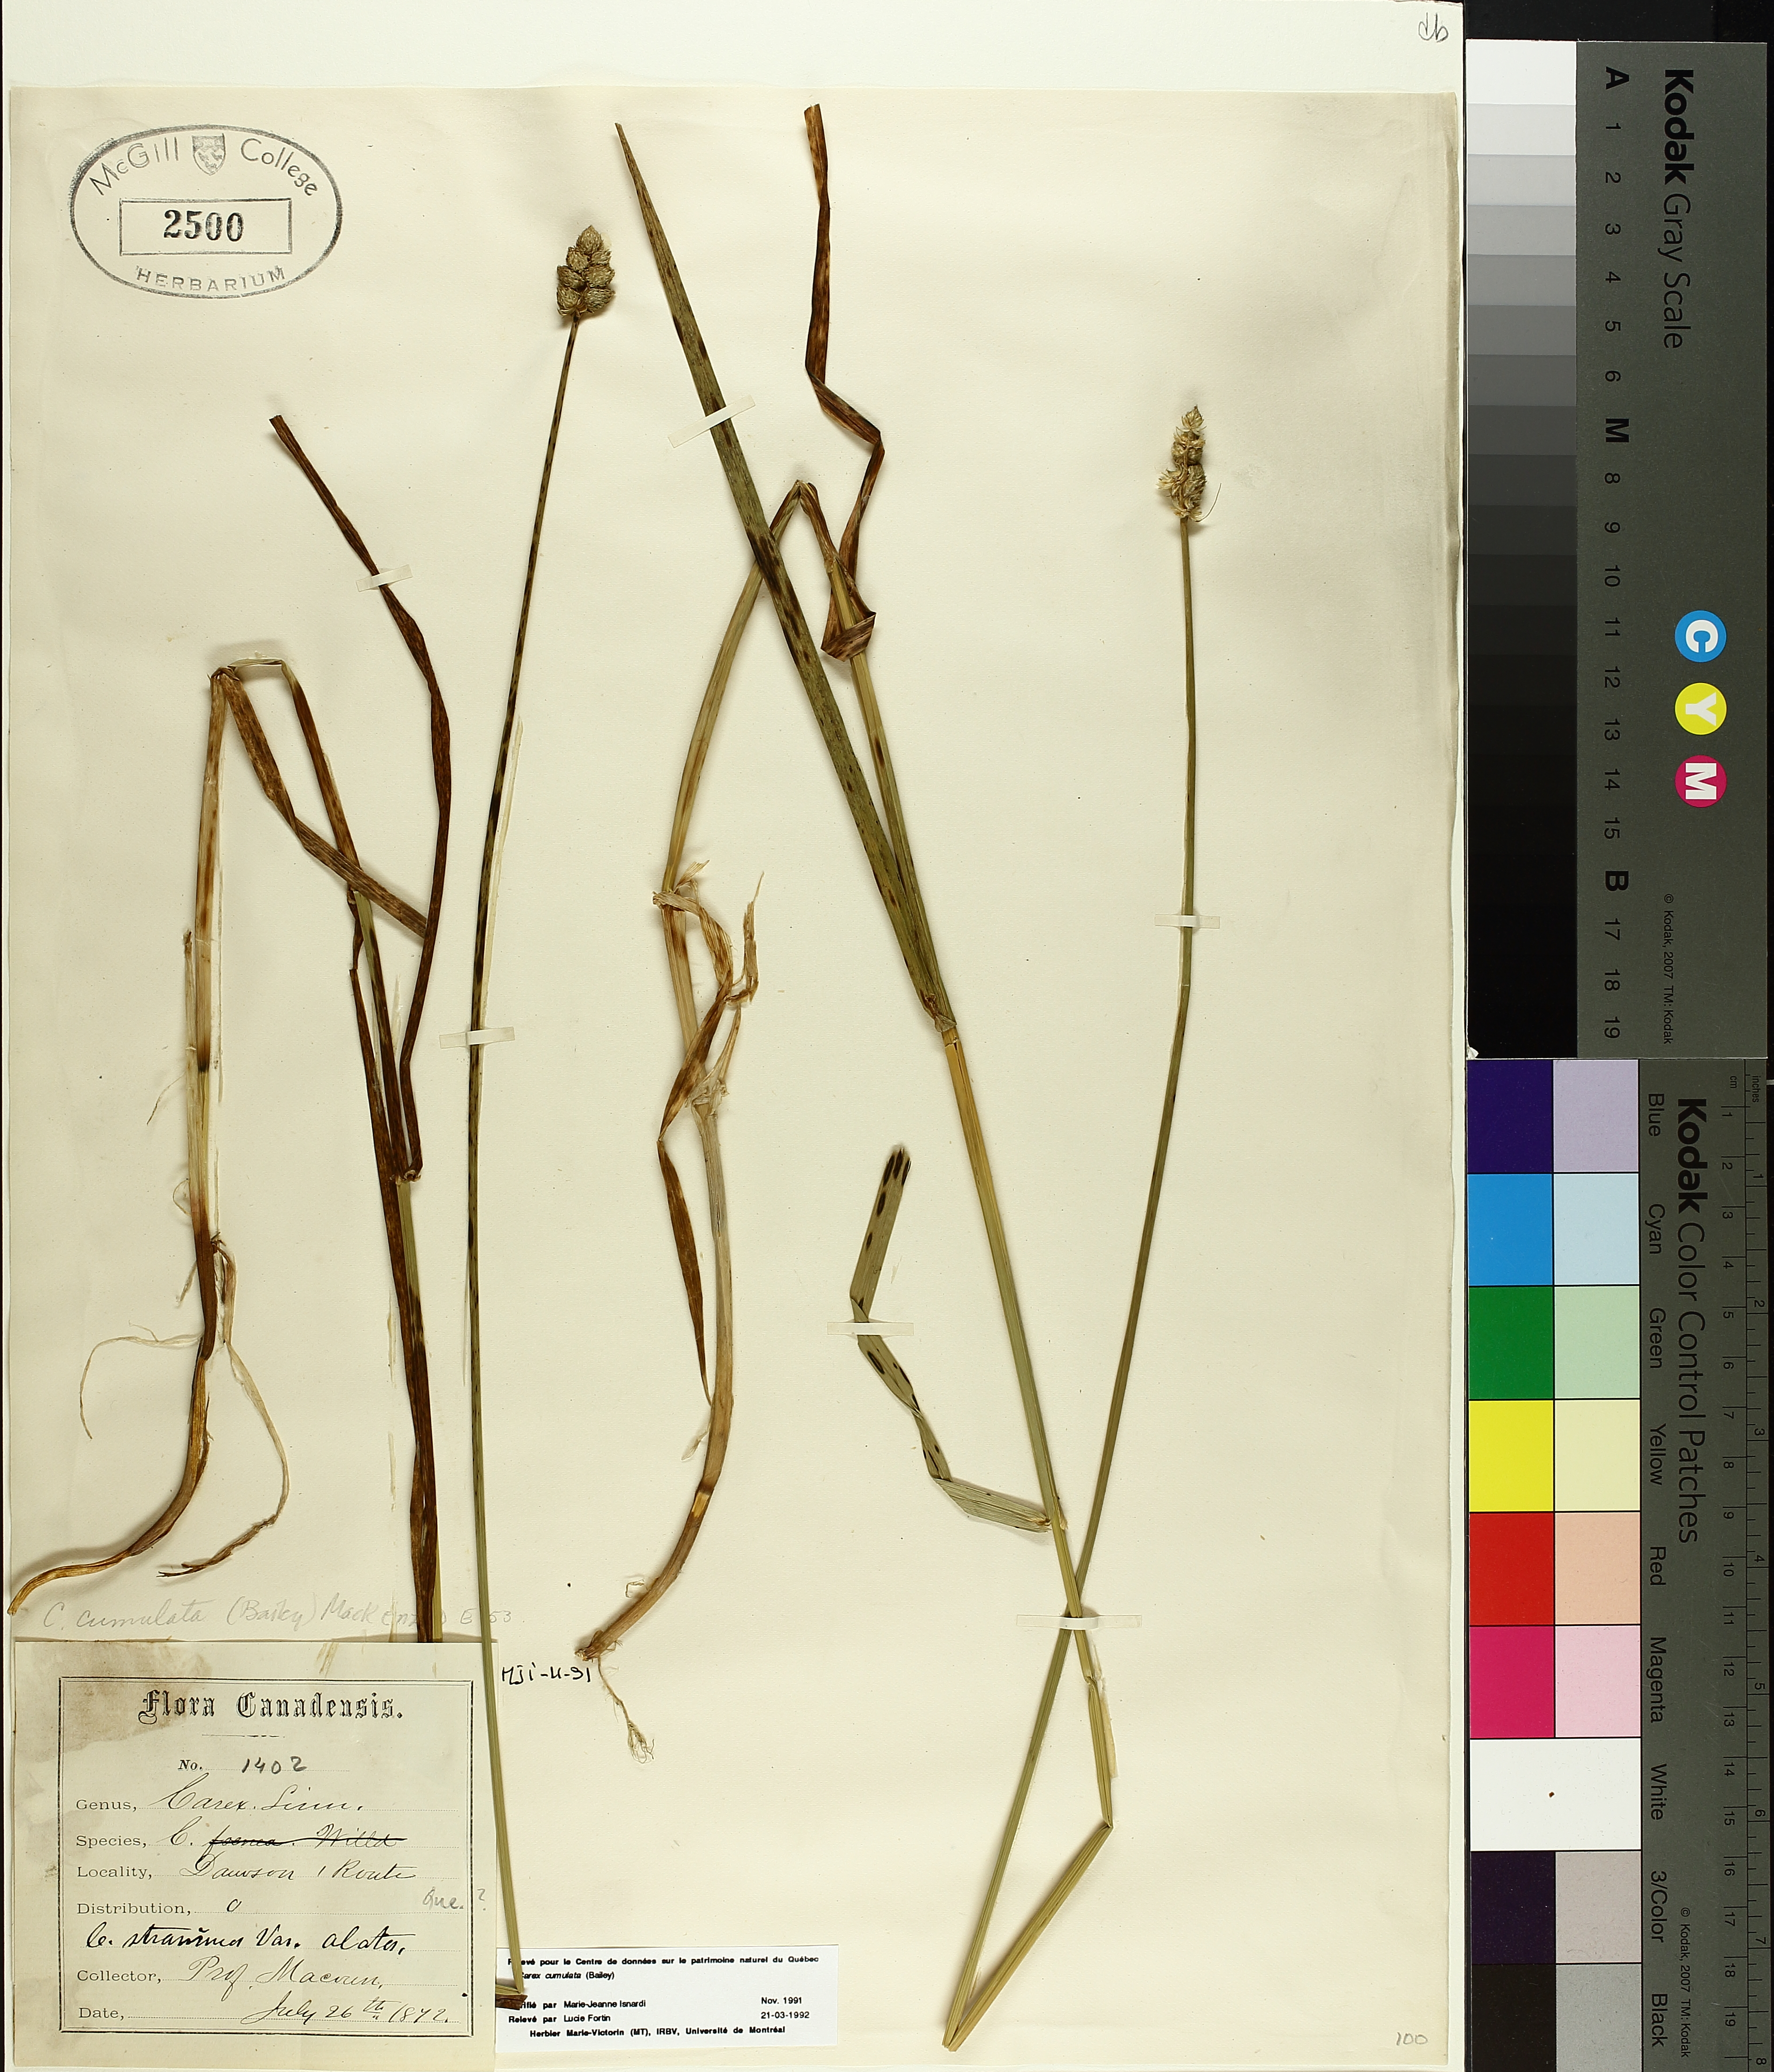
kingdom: Plantae
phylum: Tracheophyta
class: Liliopsida
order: Poales
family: Cyperaceae
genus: Carex
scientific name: Carex cumulata
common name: Accumulating sedge
